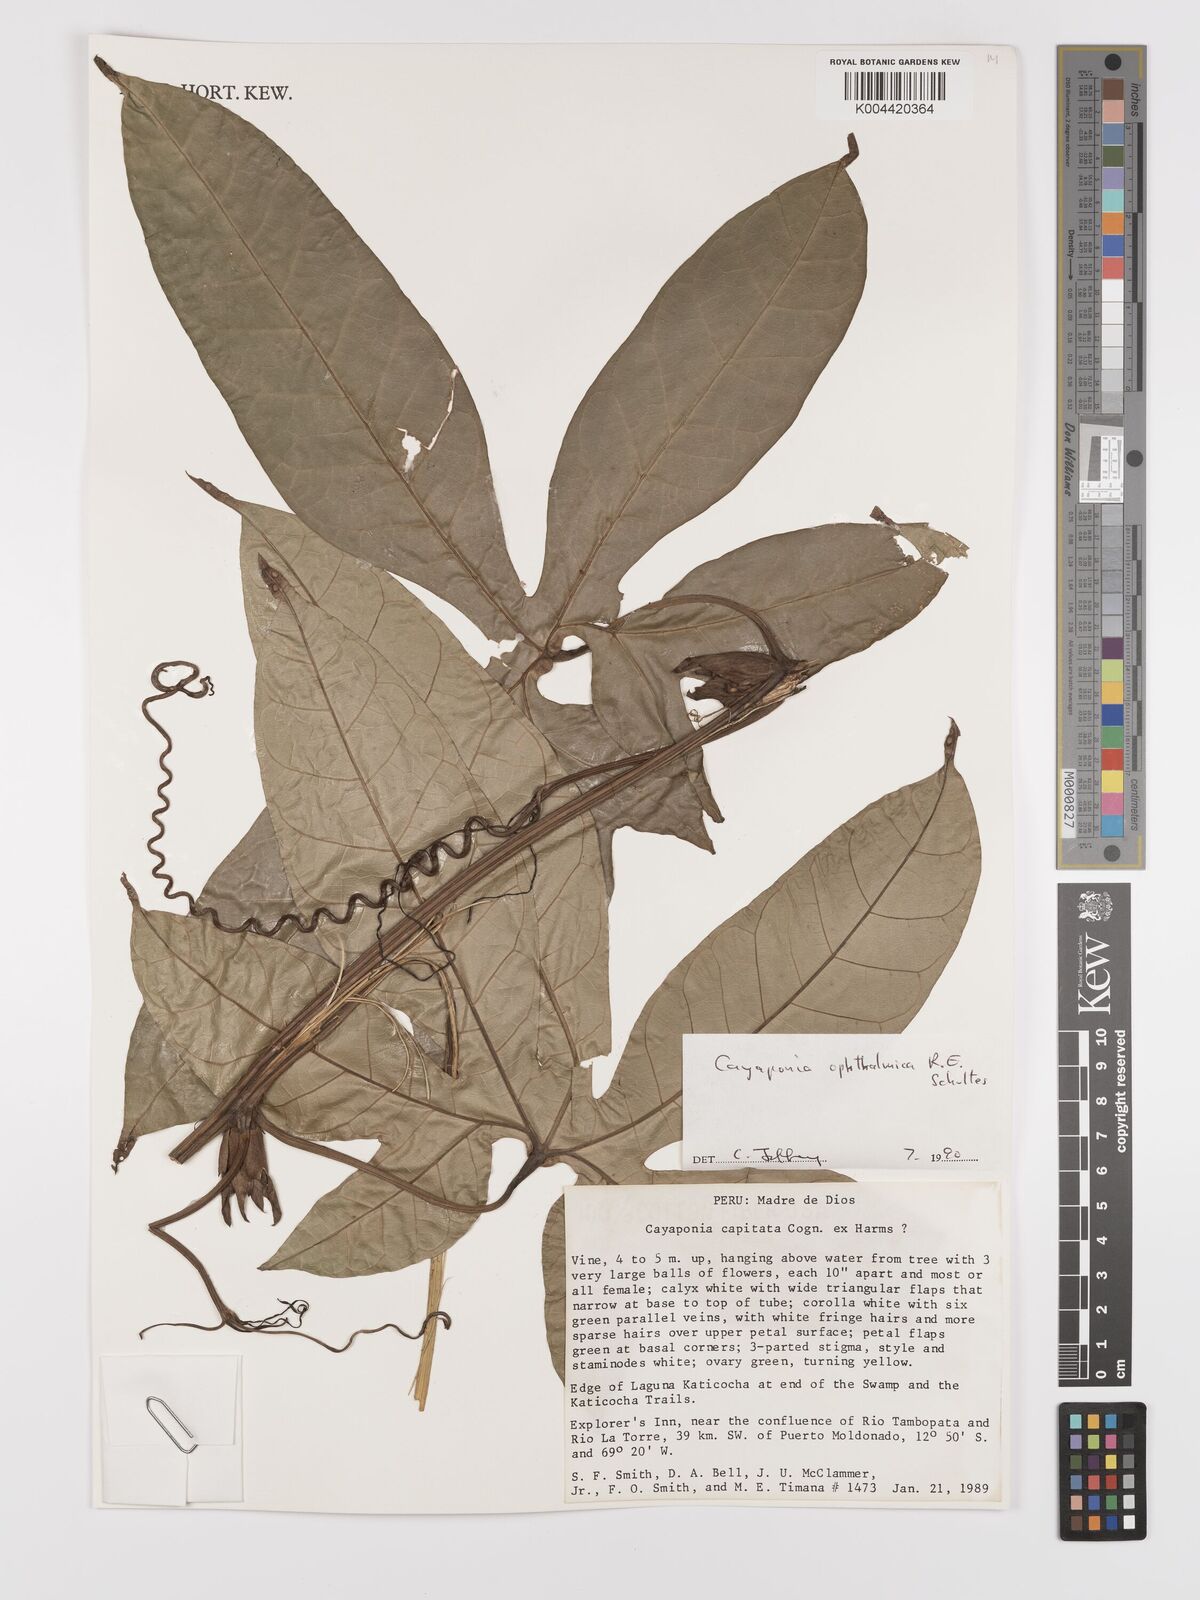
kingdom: Plantae
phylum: Tracheophyta
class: Magnoliopsida
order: Cucurbitales
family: Cucurbitaceae
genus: Cayaponia
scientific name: Cayaponia ophthalmica
